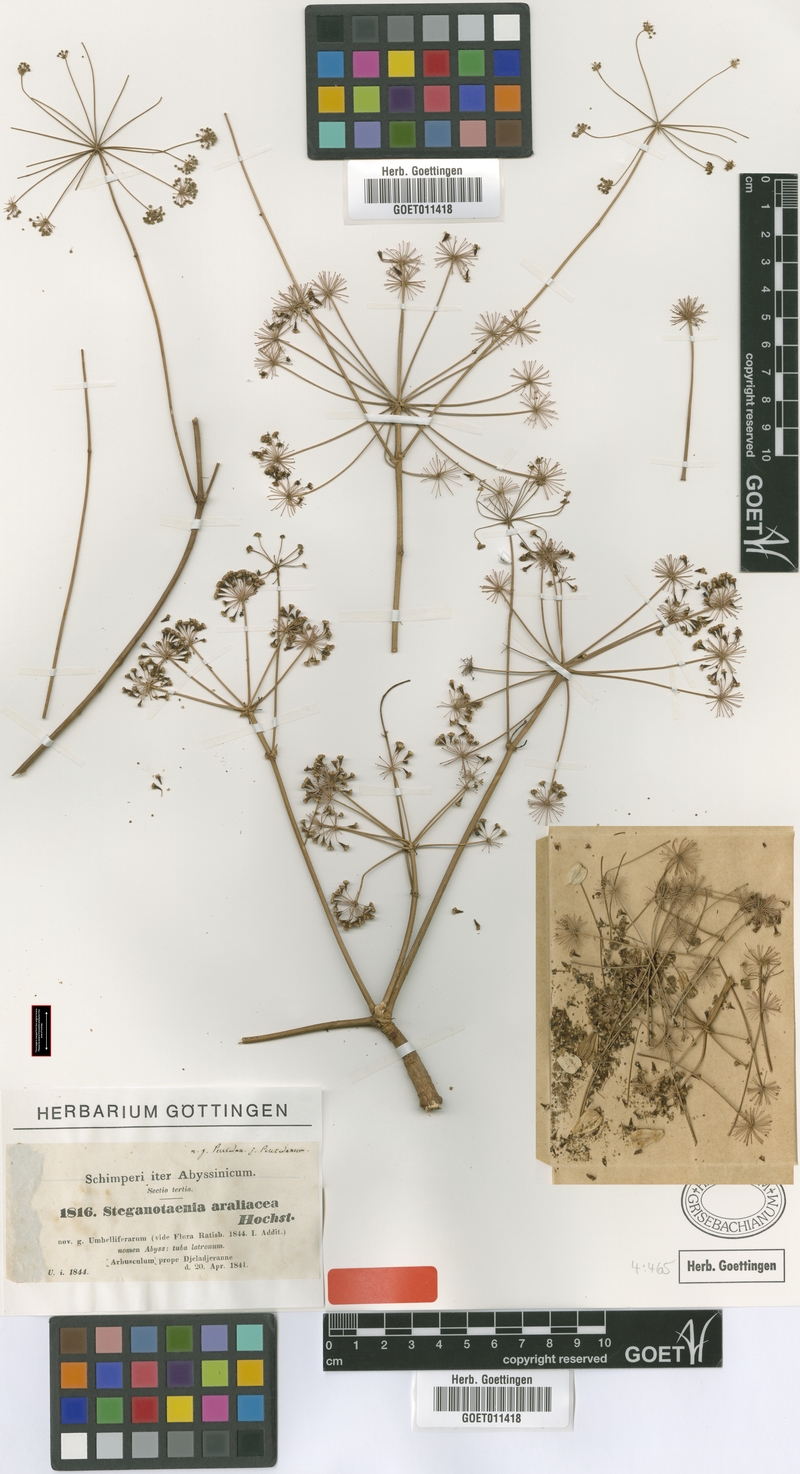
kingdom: Plantae
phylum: Tracheophyta
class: Magnoliopsida
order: Apiales
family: Apiaceae
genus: Steganotaenia
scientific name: Steganotaenia araliacea
